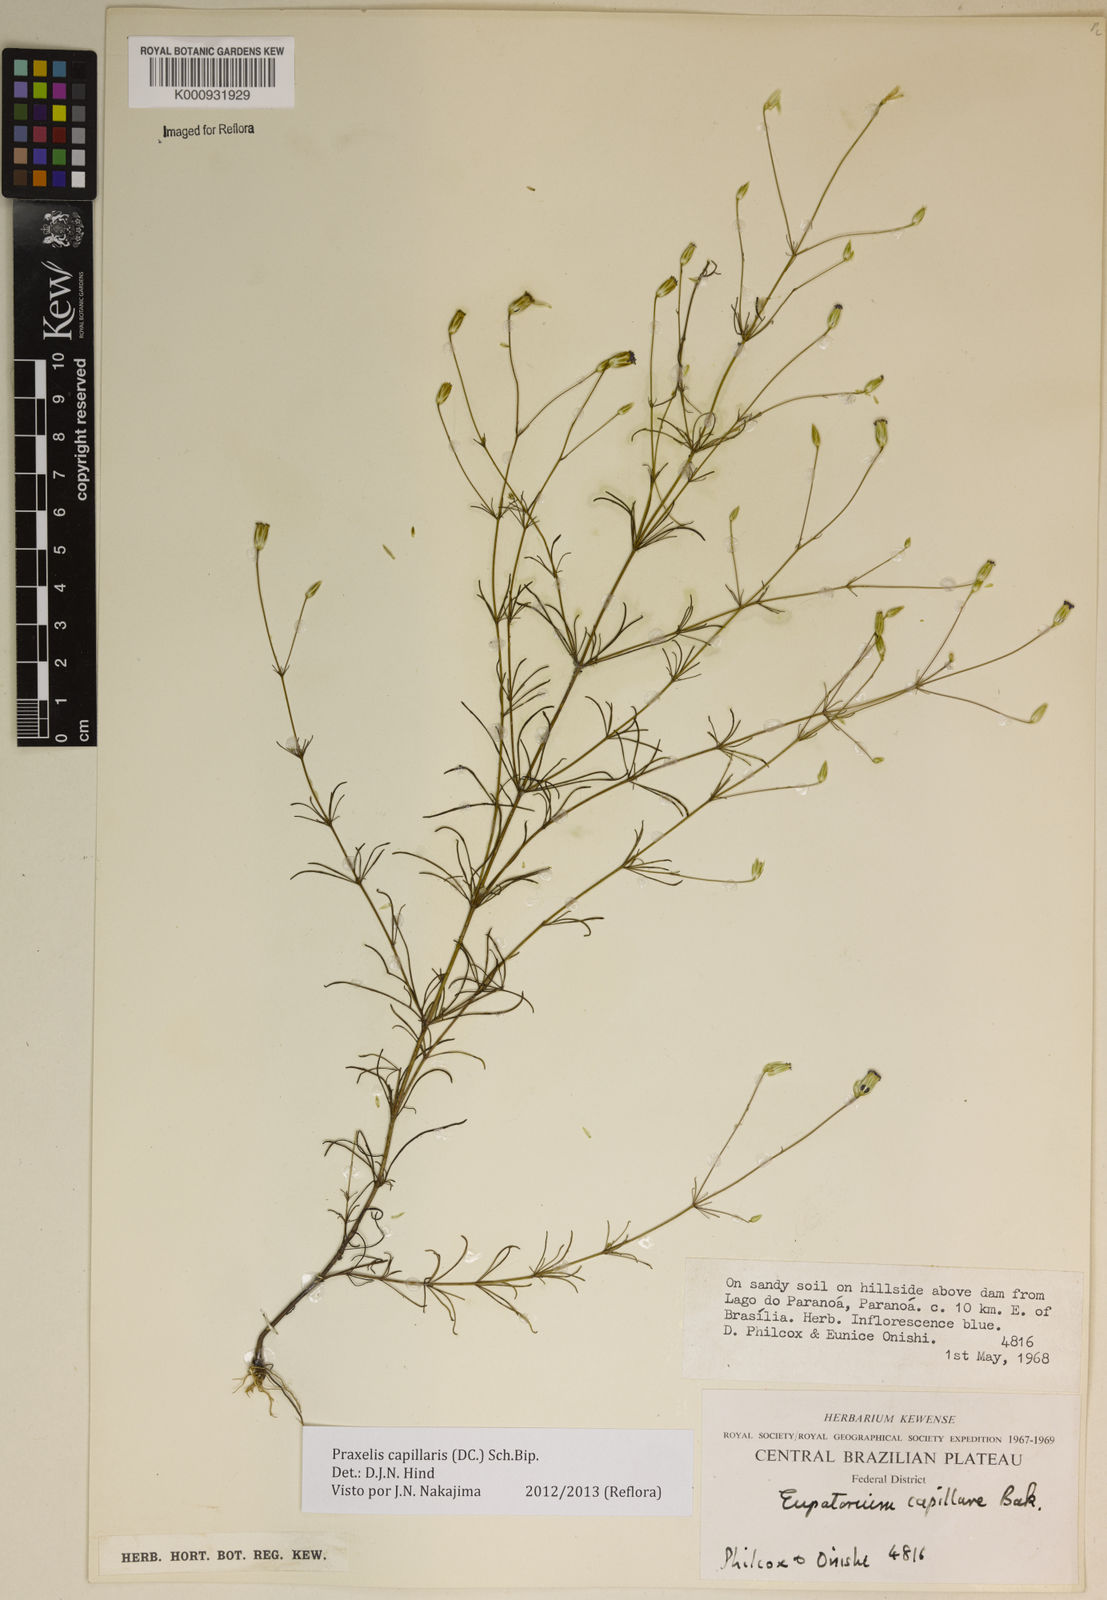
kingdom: Plantae
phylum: Tracheophyta
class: Magnoliopsida
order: Asterales
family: Asteraceae
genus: Praxelis
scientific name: Praxelis capillaris
